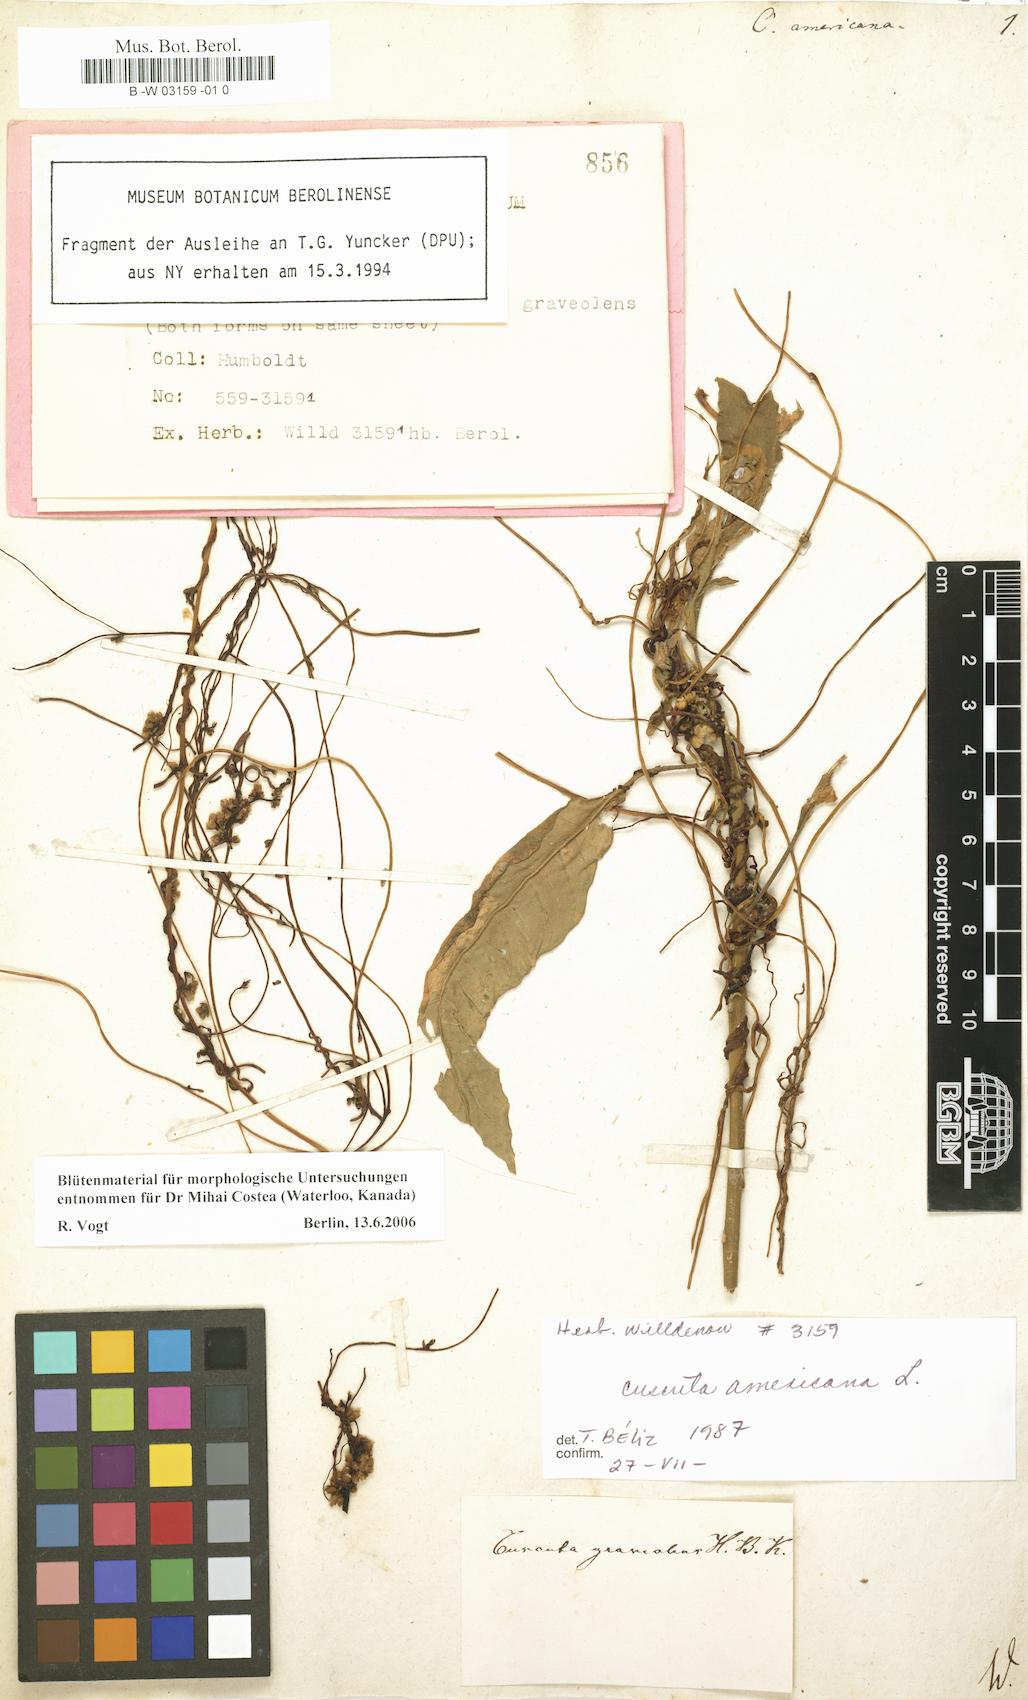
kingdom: Plantae
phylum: Tracheophyta
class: Magnoliopsida
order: Solanales
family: Convolvulaceae
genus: Cuscuta
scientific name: Cuscuta americana
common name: American dodder
